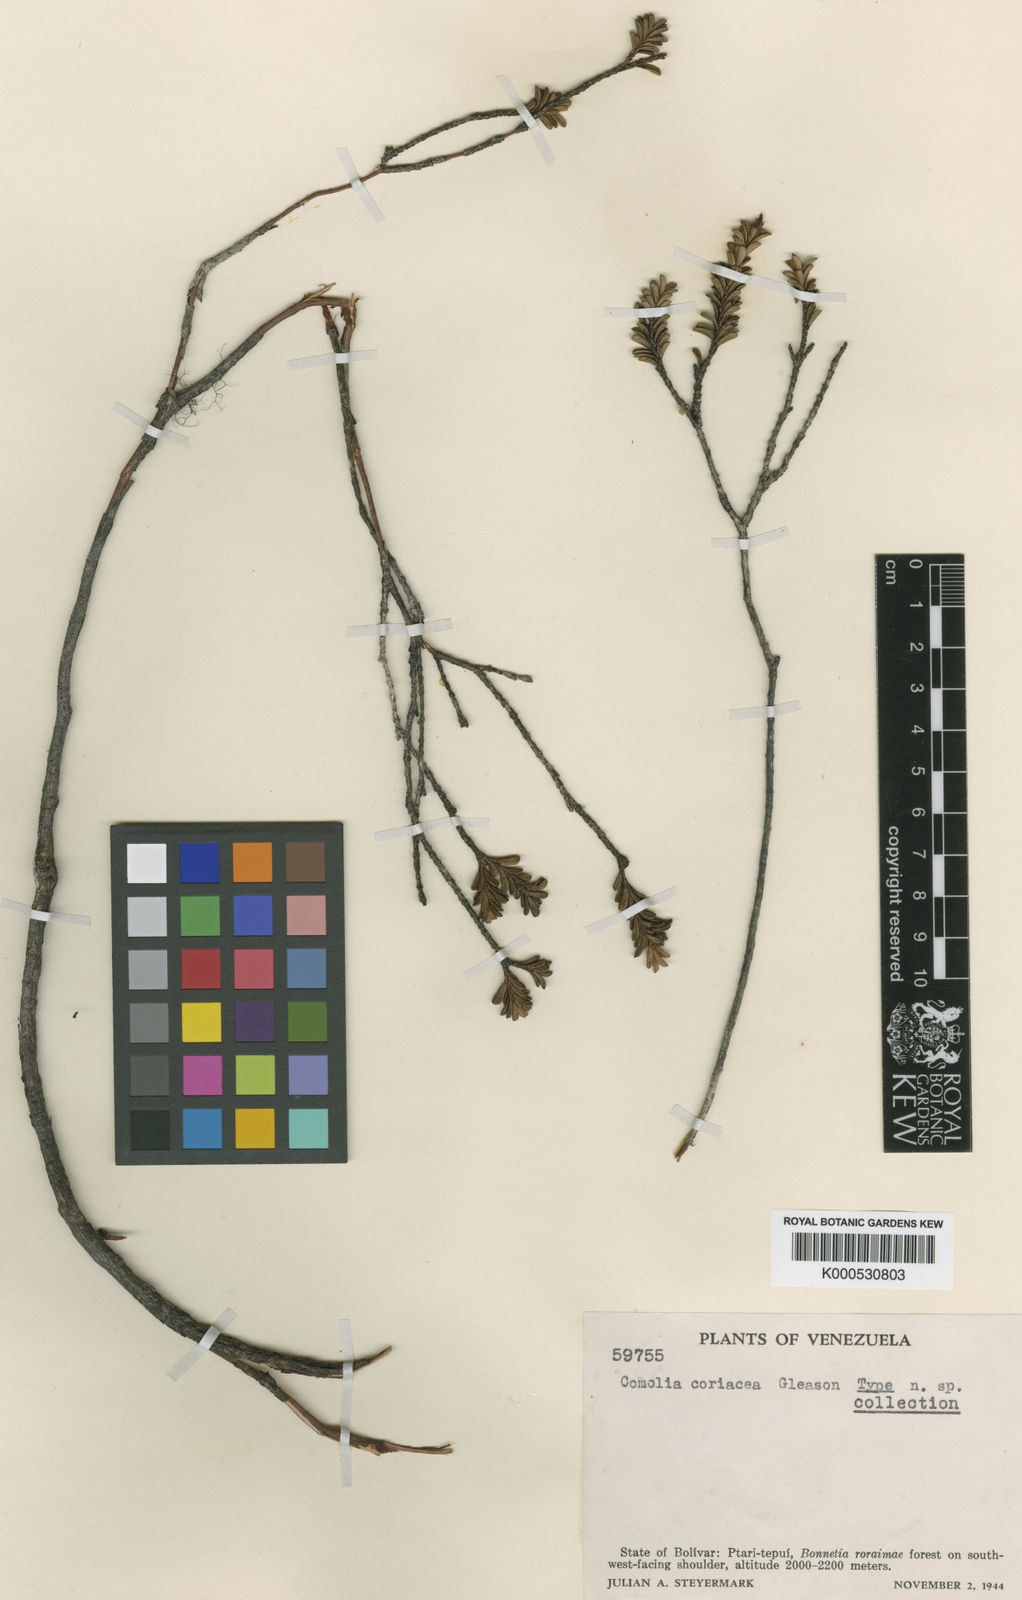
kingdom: Plantae
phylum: Tracheophyta
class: Magnoliopsida
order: Myrtales
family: Melastomataceae
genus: Comoliopsis
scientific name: Comoliopsis coriacea
